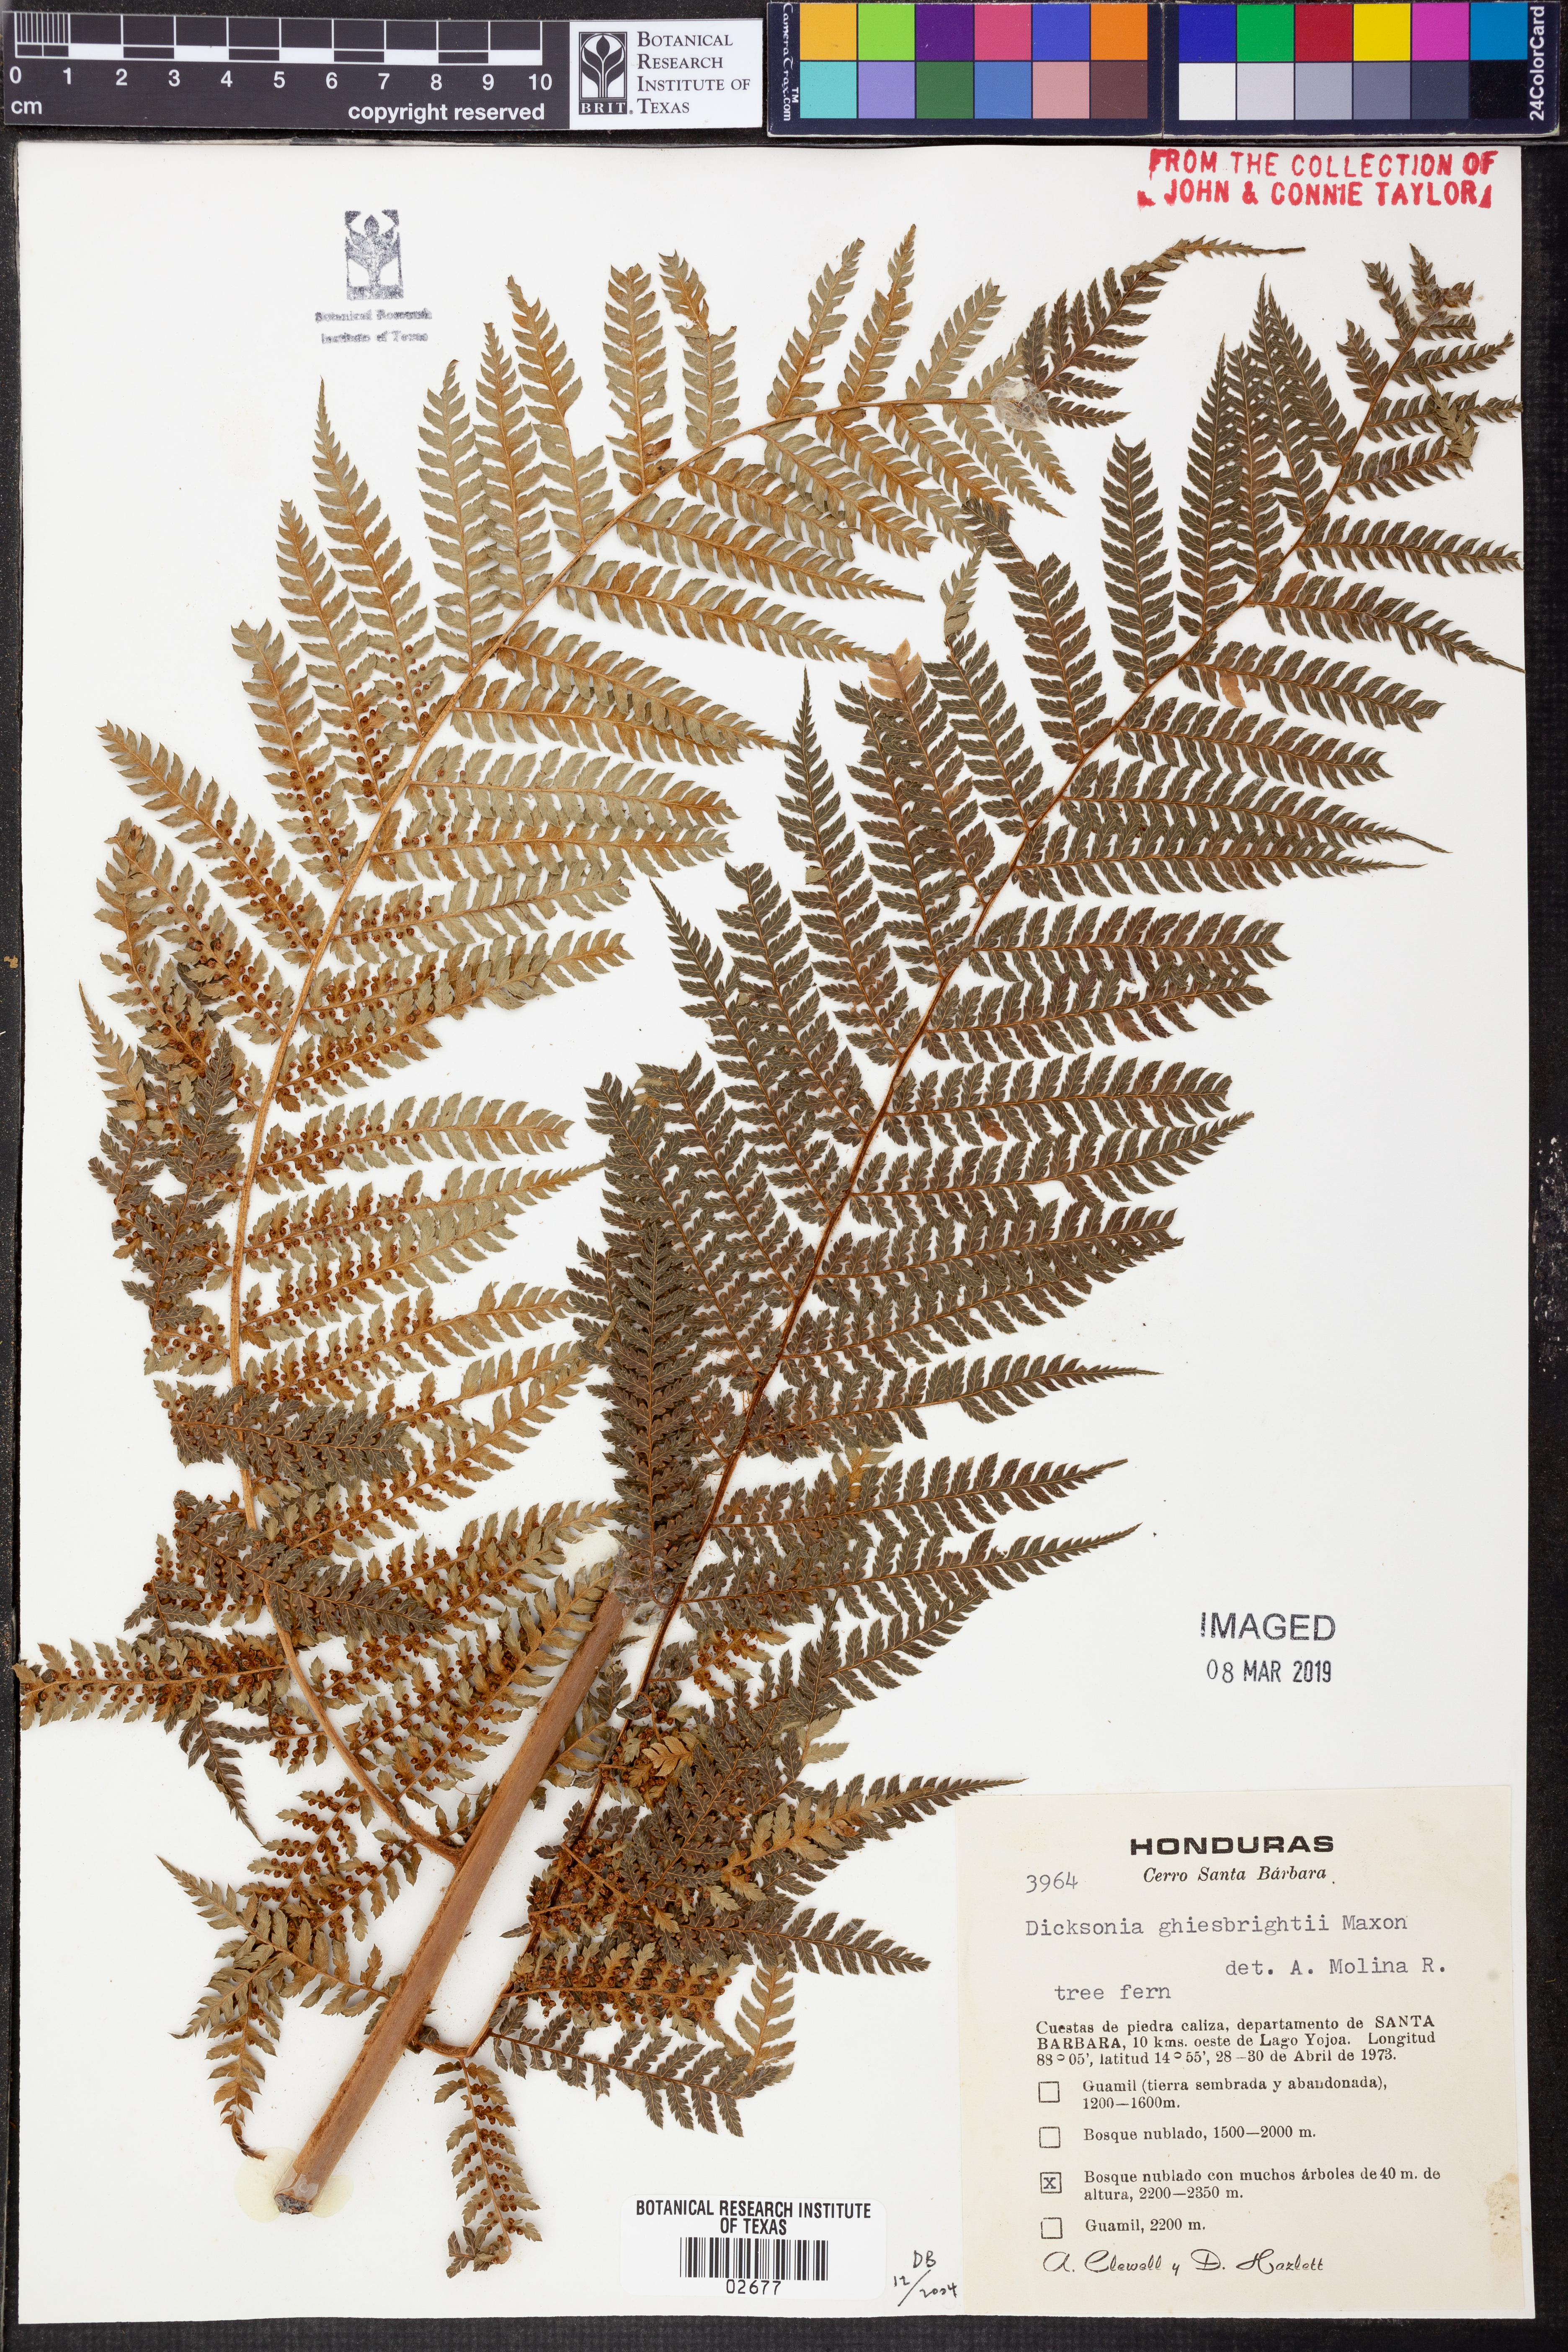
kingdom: Plantae
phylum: Tracheophyta
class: Polypodiopsida
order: Cyatheales
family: Dicksoniaceae
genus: Dicksonia
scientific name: Dicksonia navarrensis
